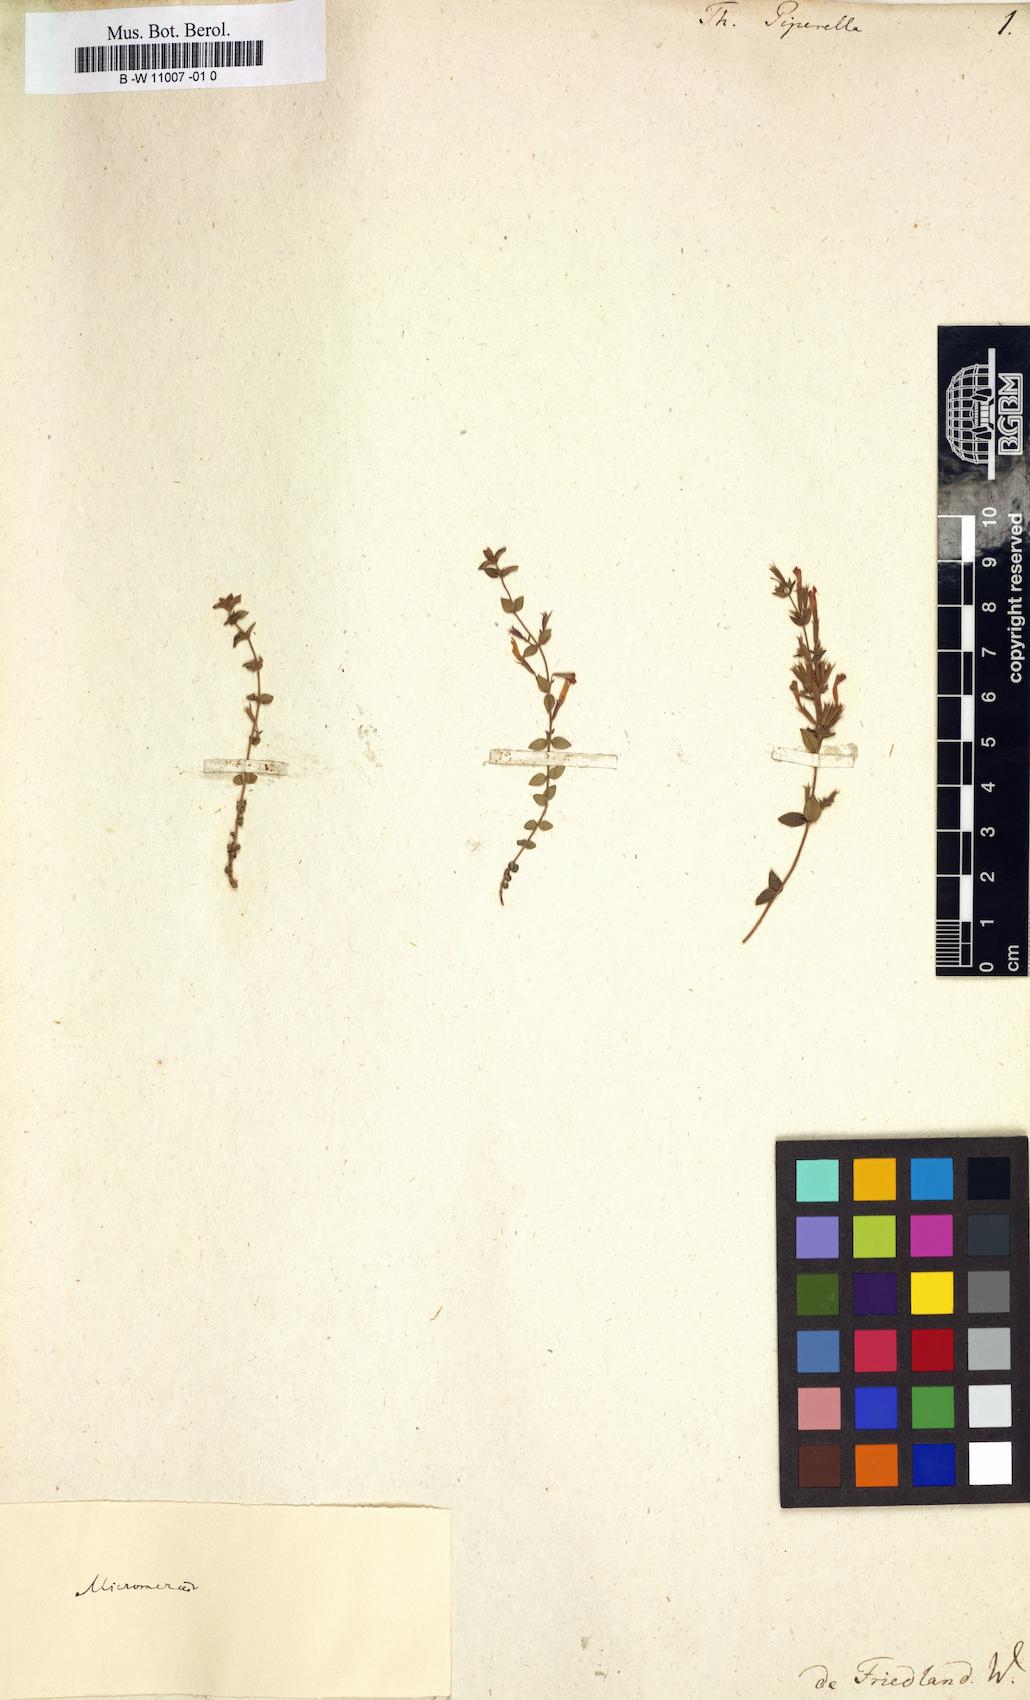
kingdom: Plantae
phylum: Tracheophyta
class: Magnoliopsida
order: Lamiales
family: Lamiaceae
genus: Thymus
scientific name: Thymus piperella
